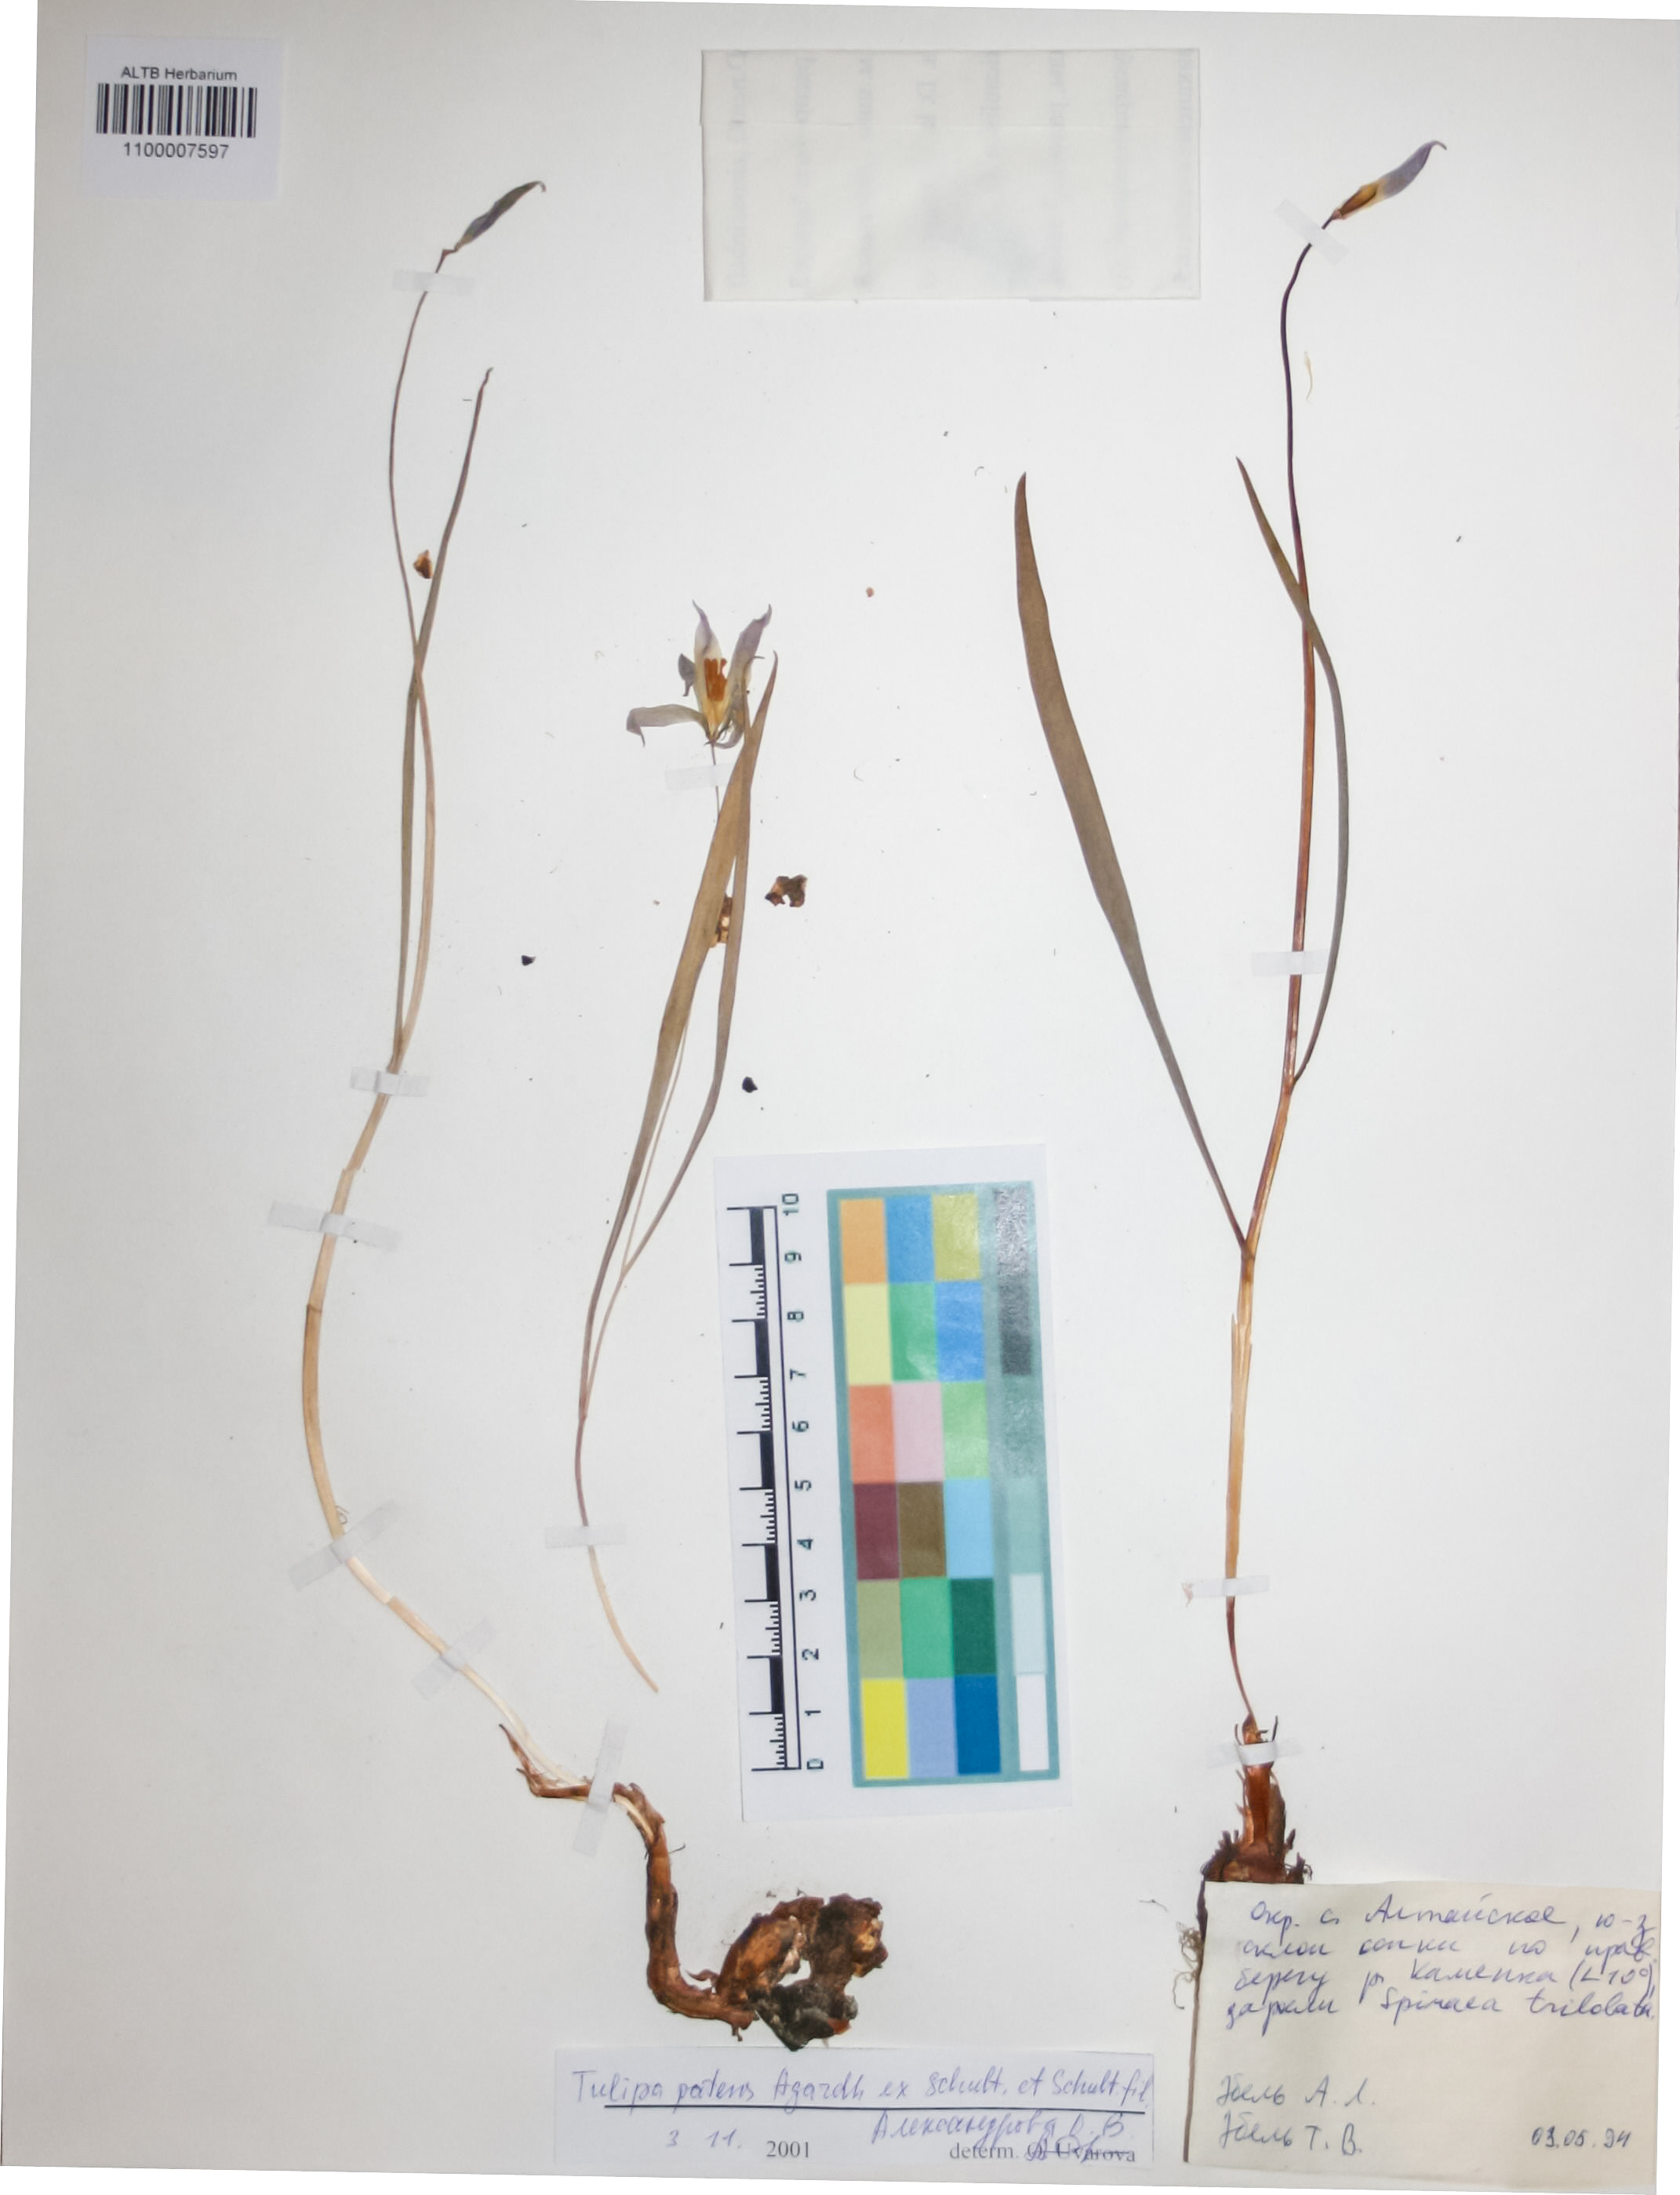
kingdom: Plantae
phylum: Tracheophyta
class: Liliopsida
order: Liliales
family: Liliaceae
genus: Tulipa
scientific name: Tulipa patens
